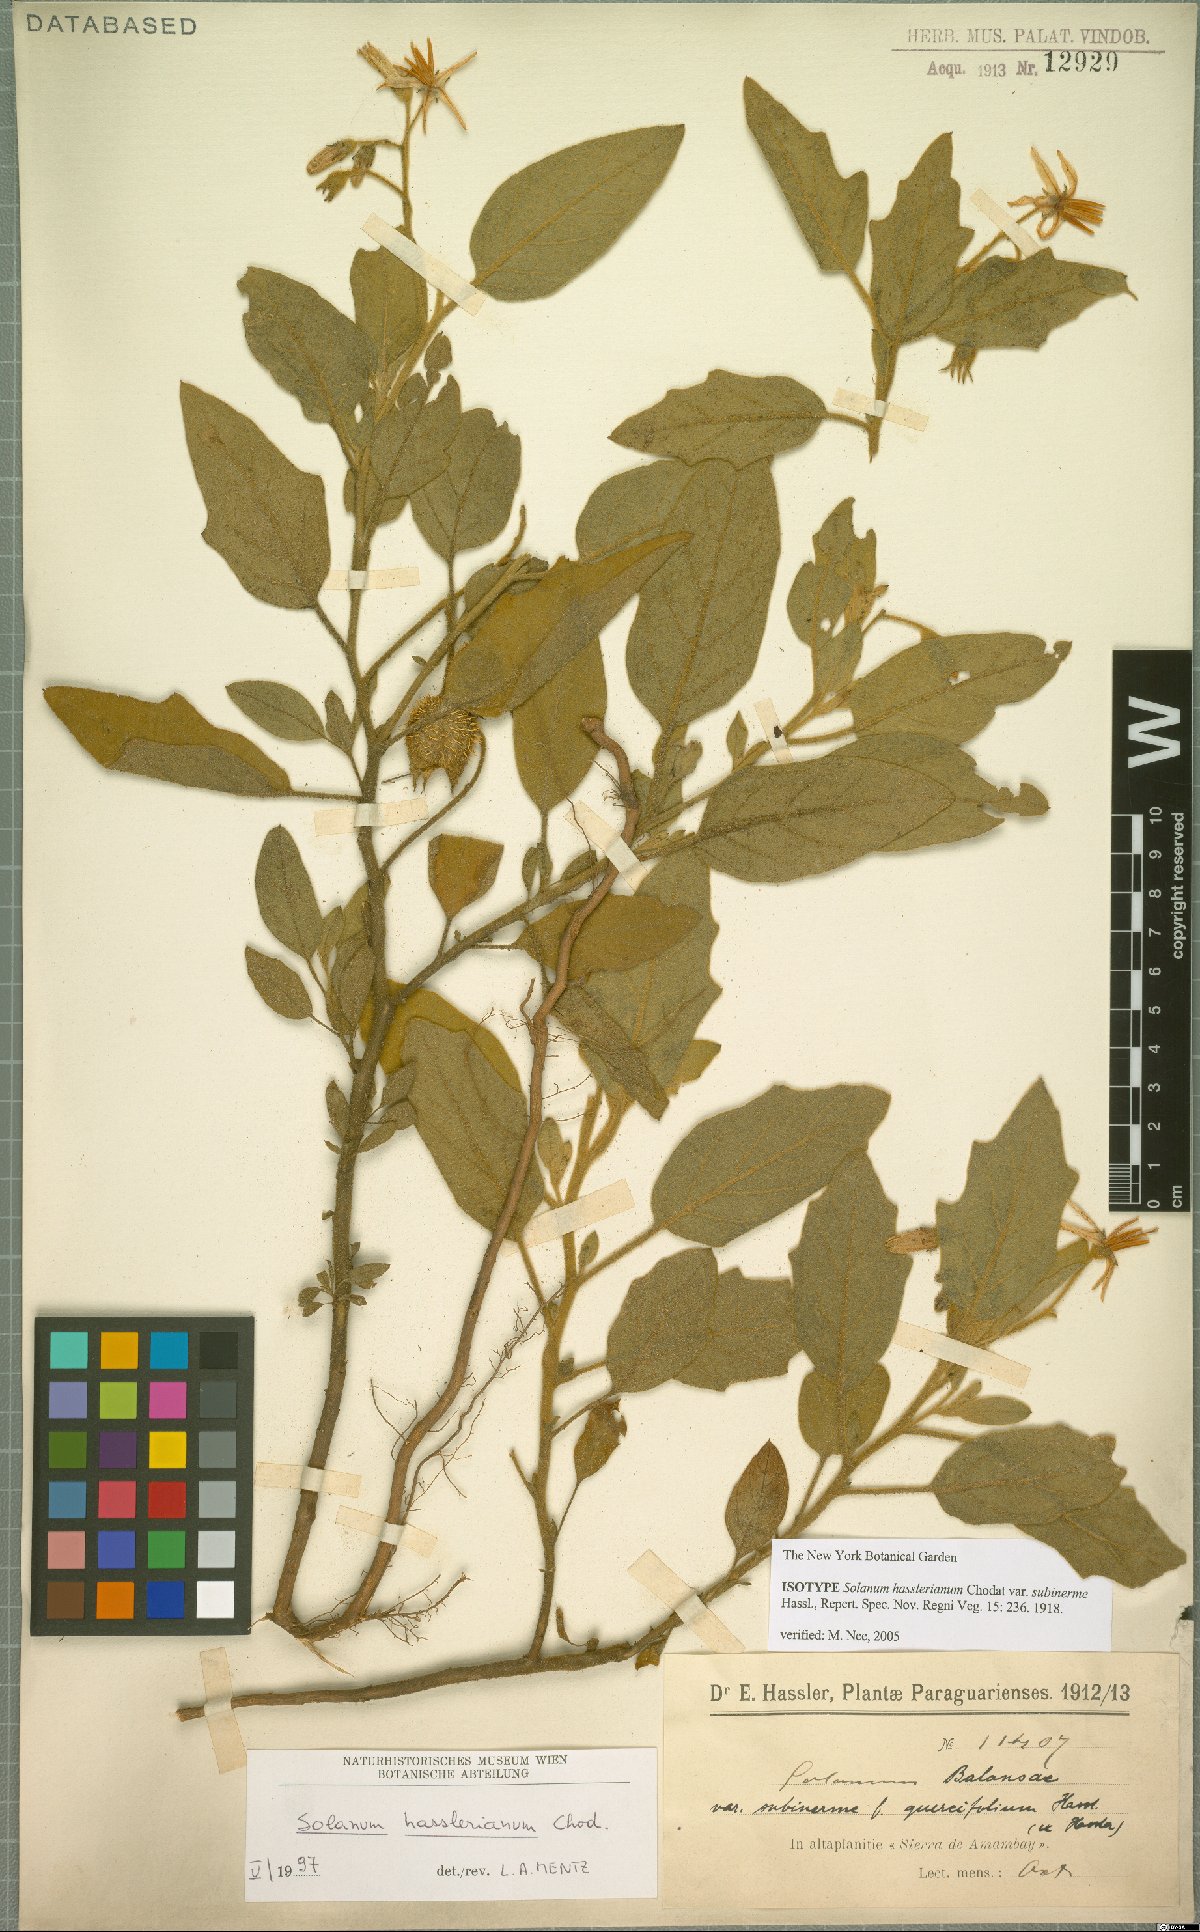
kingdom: Plantae
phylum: Tracheophyta
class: Magnoliopsida
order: Solanales
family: Solanaceae
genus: Solanum
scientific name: Solanum hasslerianum
